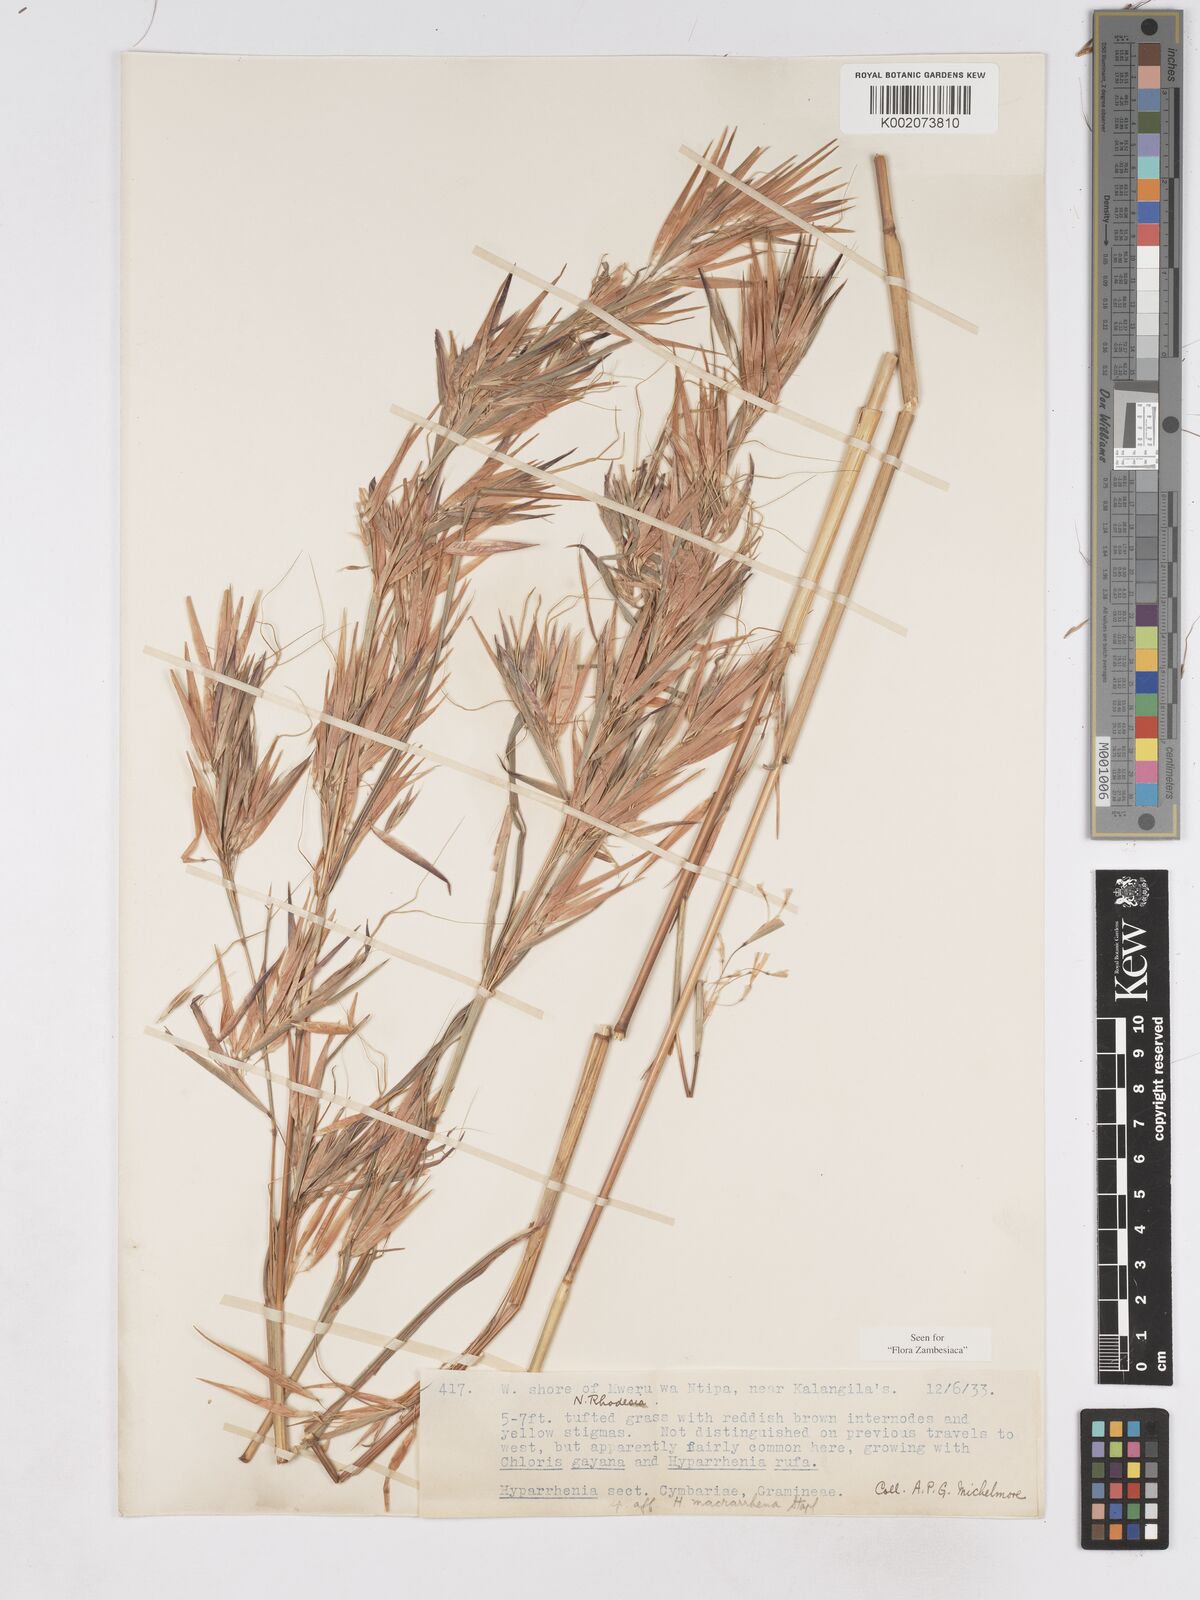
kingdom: Plantae
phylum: Tracheophyta
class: Liliopsida
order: Poales
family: Poaceae
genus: Hyparrhenia
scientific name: Hyparrhenia madaropoda
